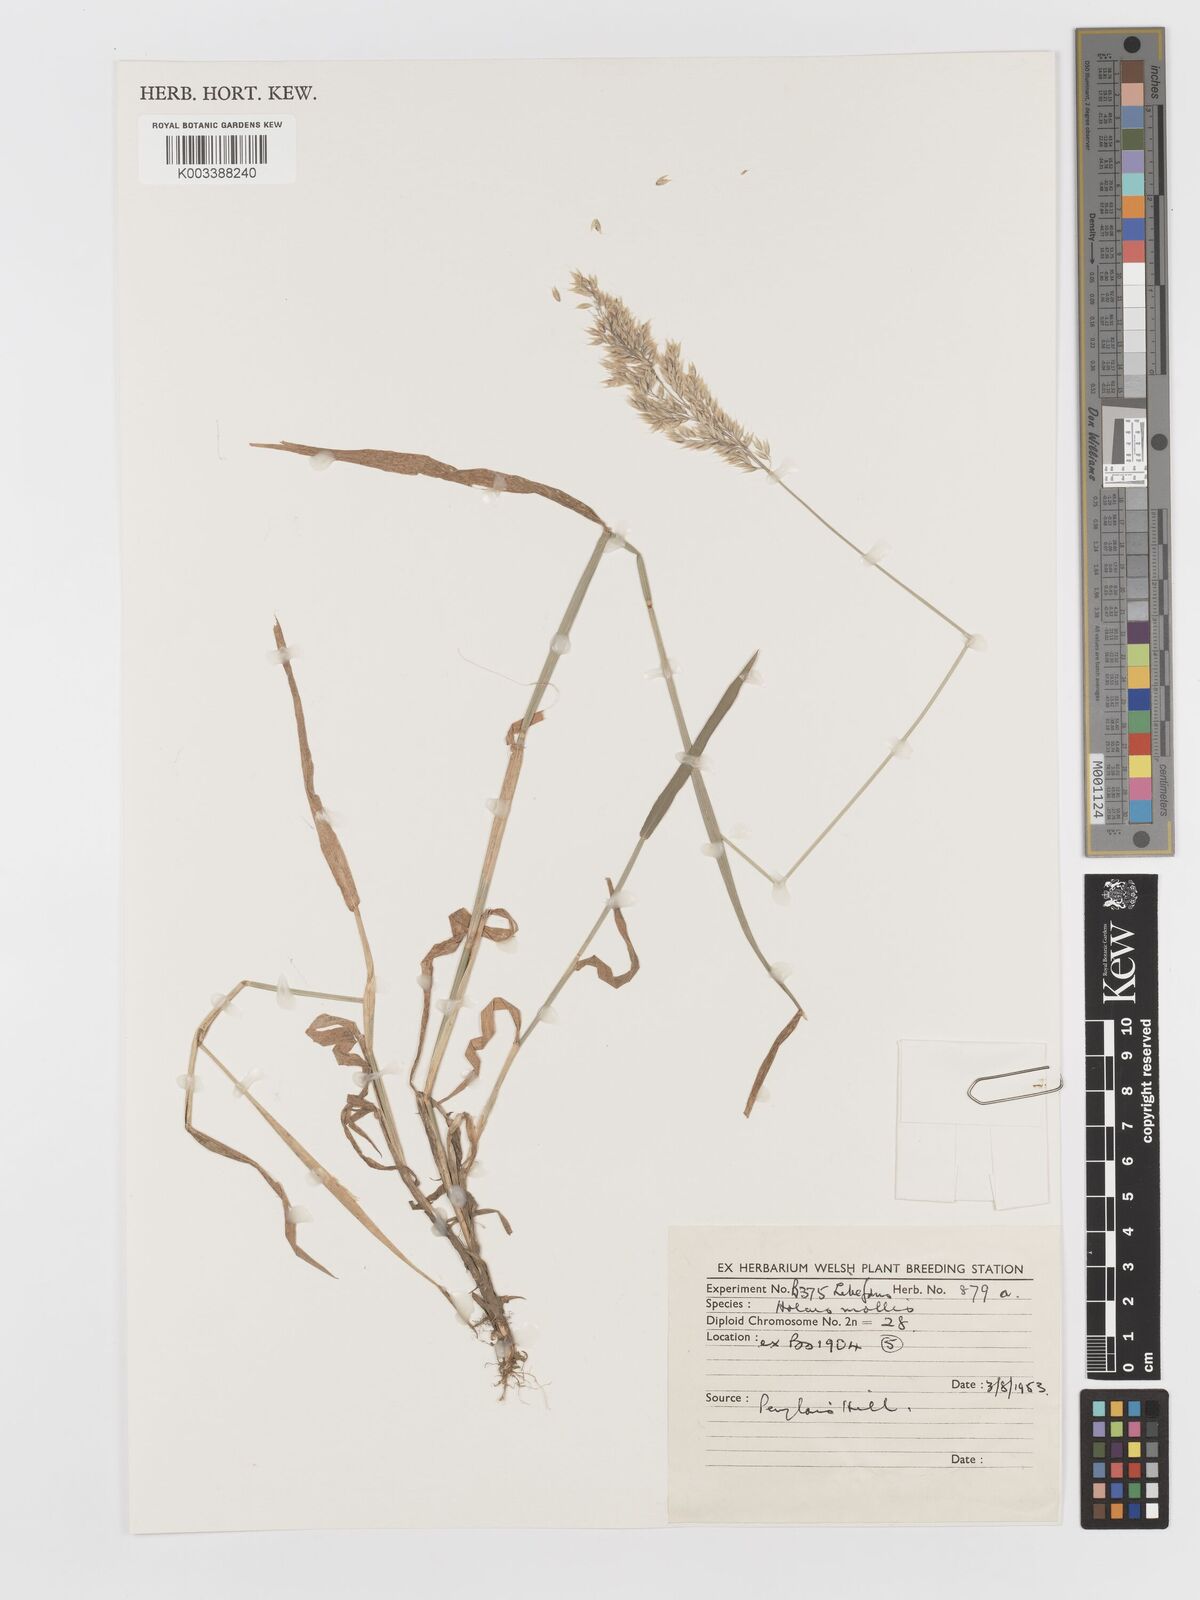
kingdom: Plantae
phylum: Tracheophyta
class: Liliopsida
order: Poales
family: Poaceae
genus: Holcus
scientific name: Holcus mollis
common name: Creeping velvetgrass
